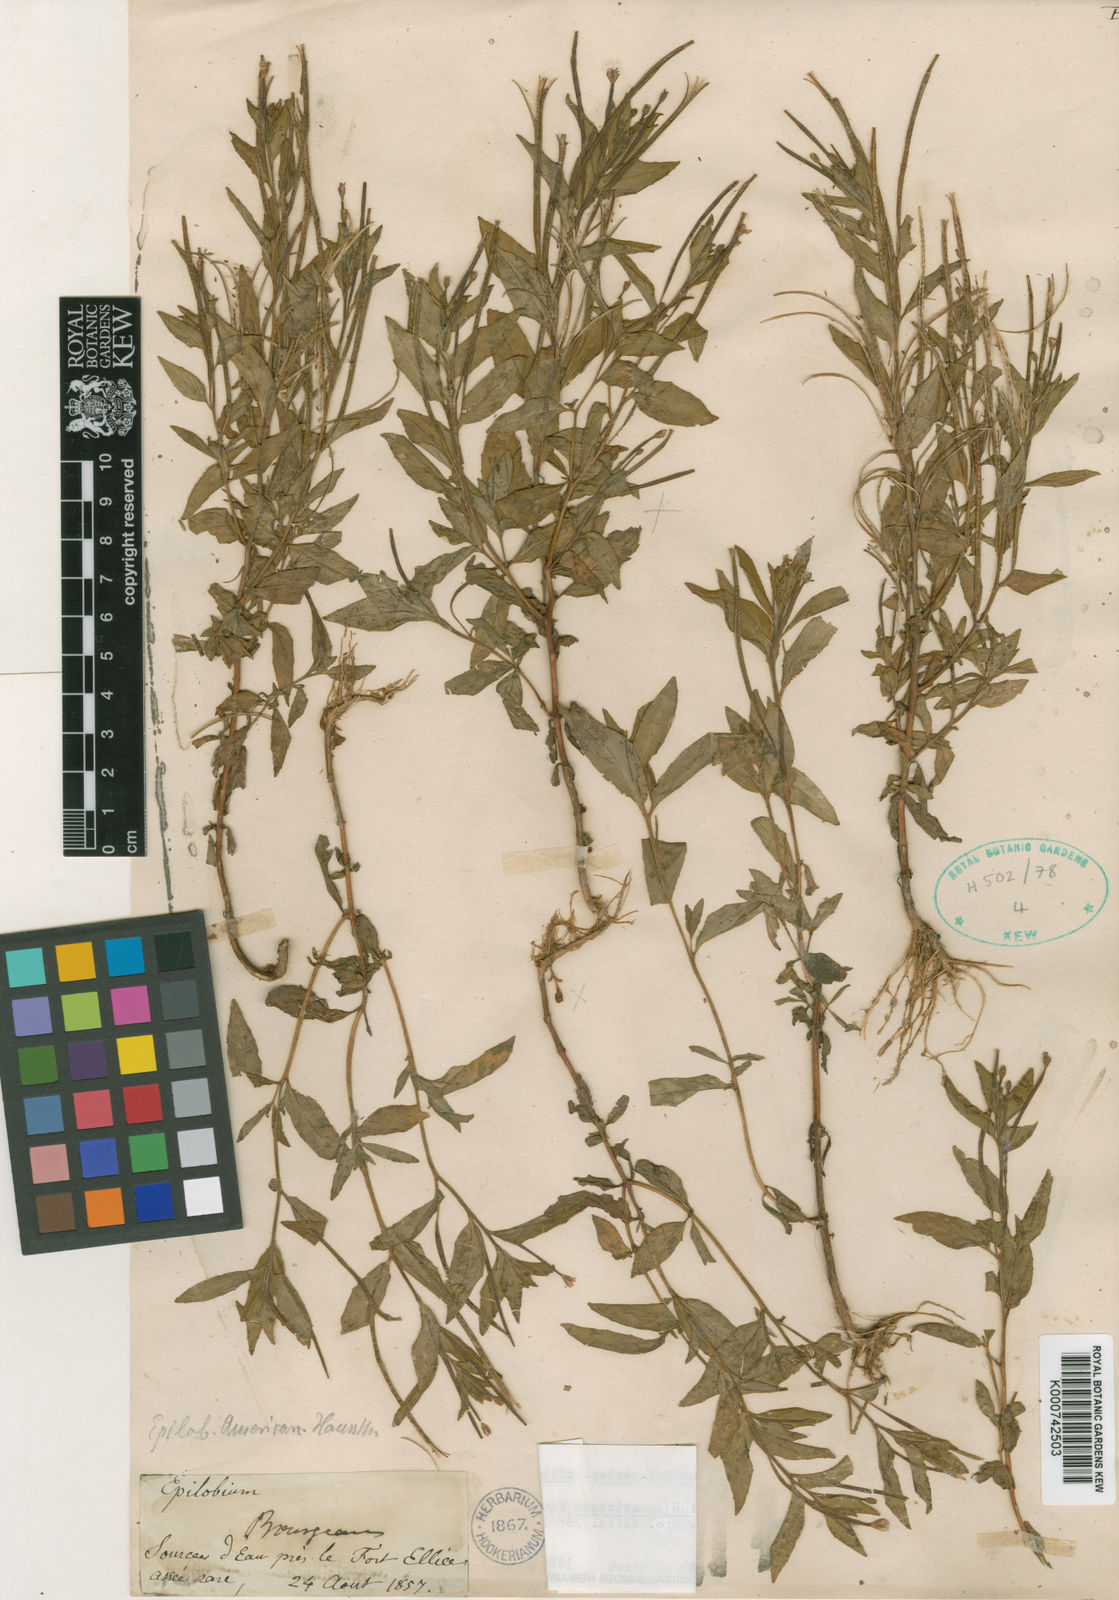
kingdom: Plantae
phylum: Tracheophyta
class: Magnoliopsida
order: Myrtales
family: Onagraceae
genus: Epilobium
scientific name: Epilobium ciliatum
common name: American willowherb
